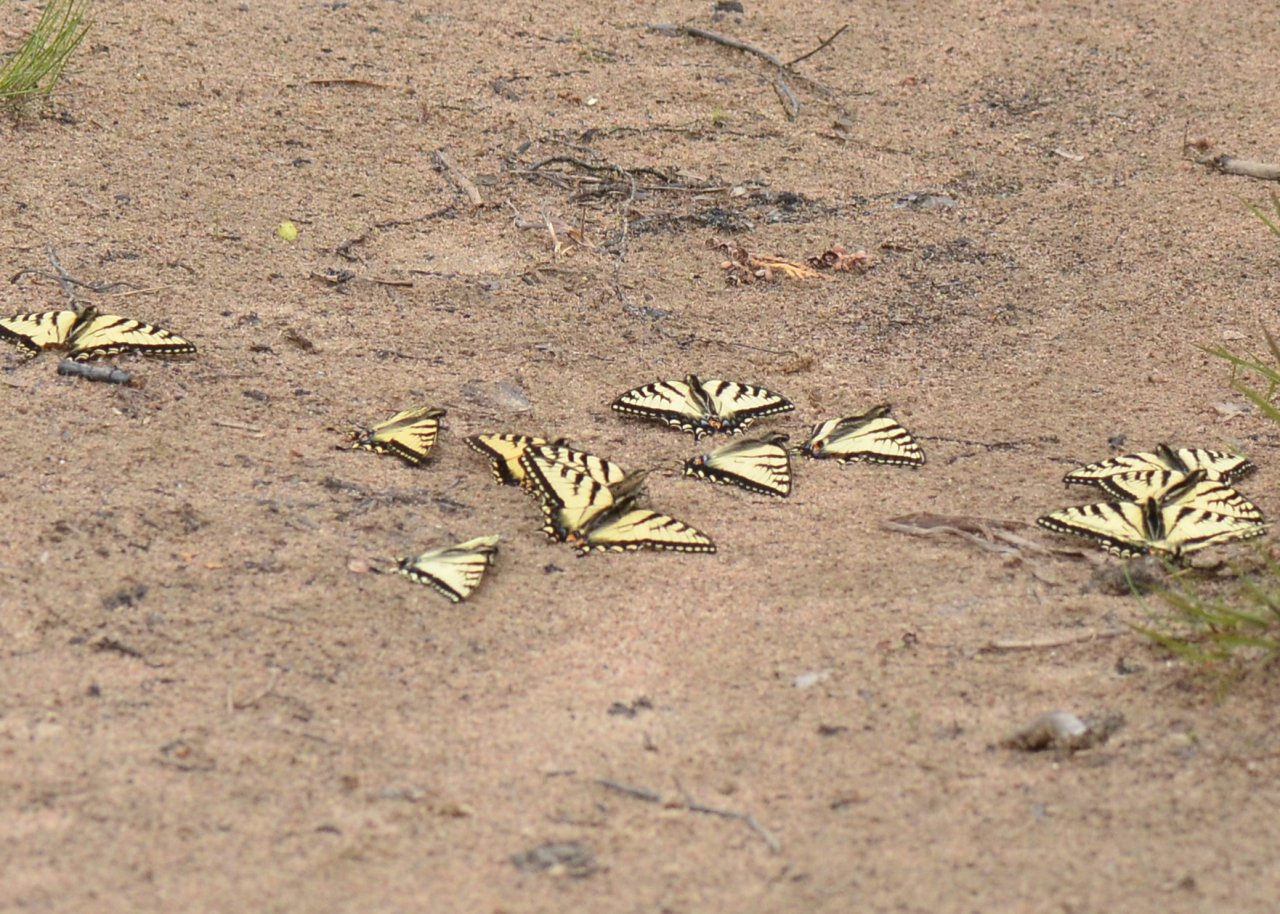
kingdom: Animalia
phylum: Arthropoda
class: Insecta
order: Lepidoptera
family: Papilionidae
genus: Pterourus
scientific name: Pterourus canadensis
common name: Canadian Tiger Swallowtail
